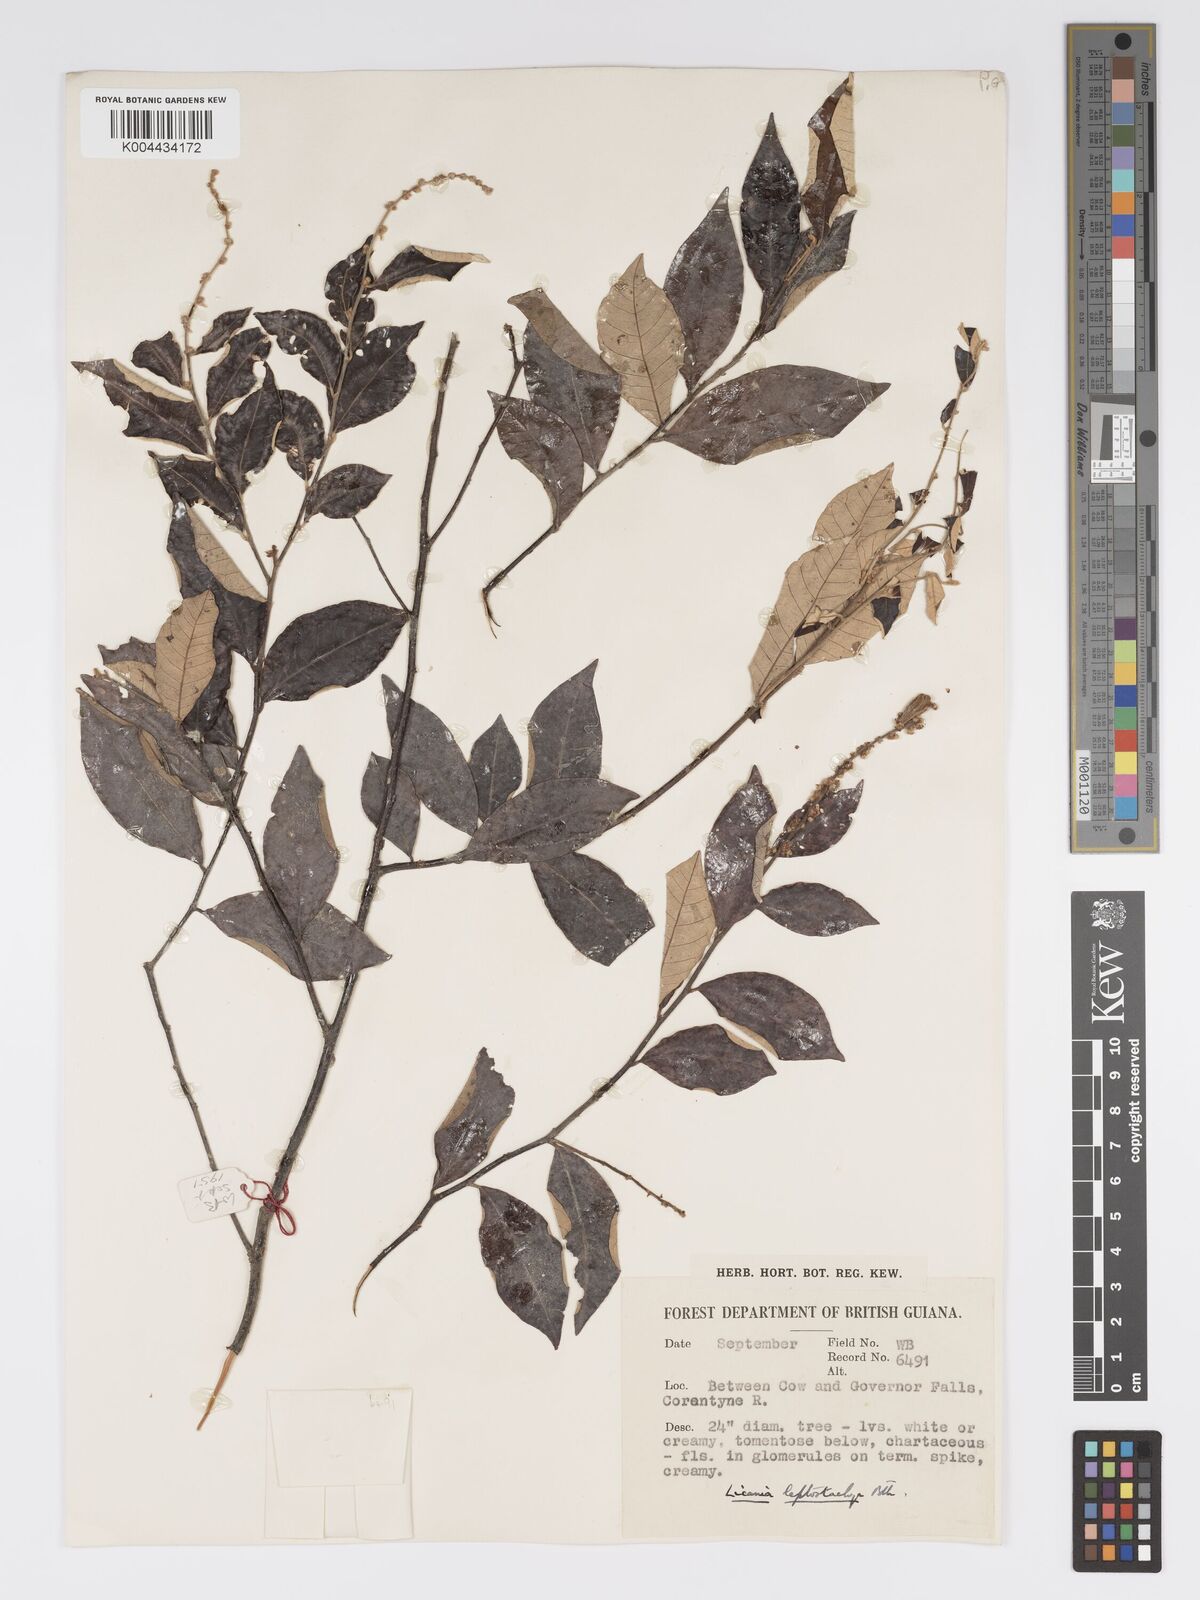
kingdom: Plantae
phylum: Tracheophyta
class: Magnoliopsida
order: Malpighiales
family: Chrysobalanaceae
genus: Licania
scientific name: Licania leptostachya
